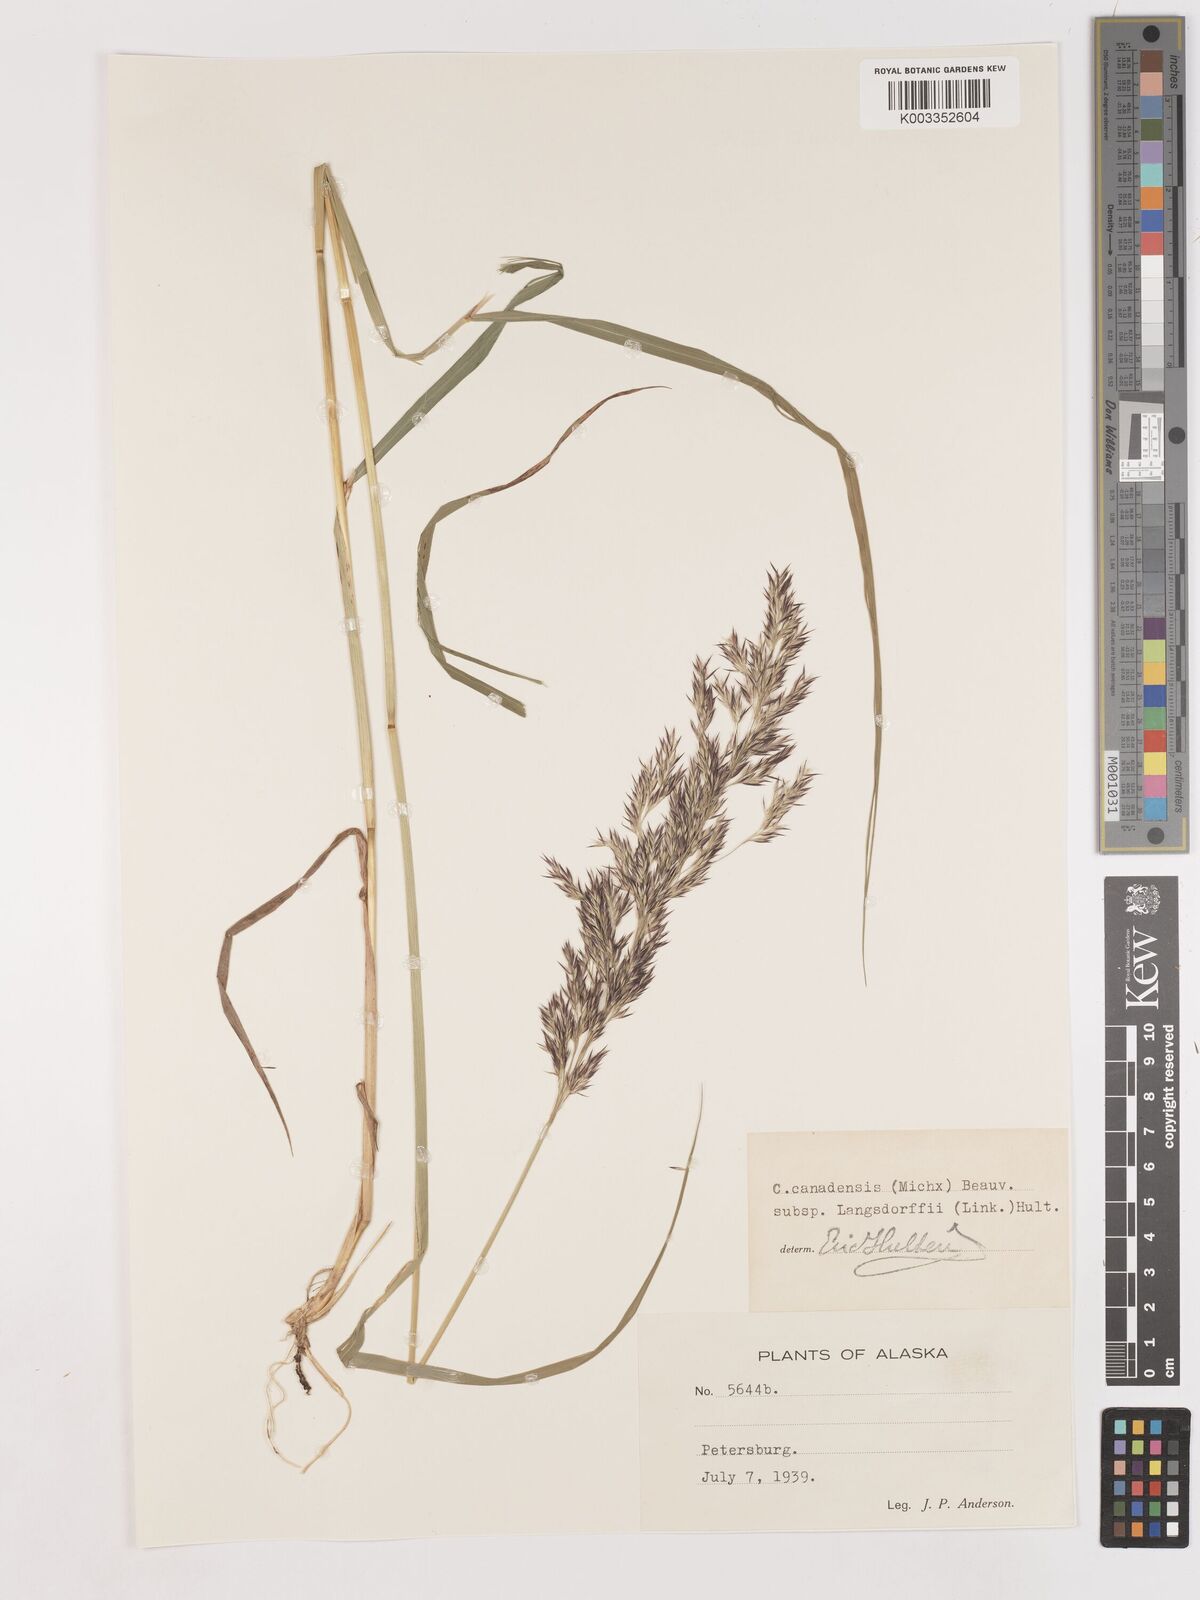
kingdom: Plantae
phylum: Tracheophyta
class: Liliopsida
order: Poales
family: Poaceae
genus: Calamagrostis
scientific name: Calamagrostis canadensis
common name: Canada bluejoint
